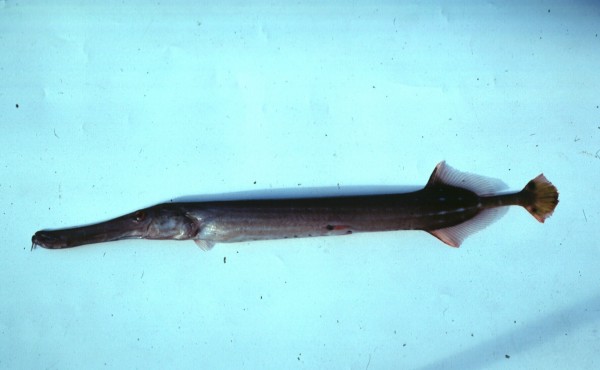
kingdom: Animalia
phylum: Chordata
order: Syngnathiformes
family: Aulostomidae
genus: Aulostomus
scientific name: Aulostomus chinensis
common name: Chinese trumpetfish
